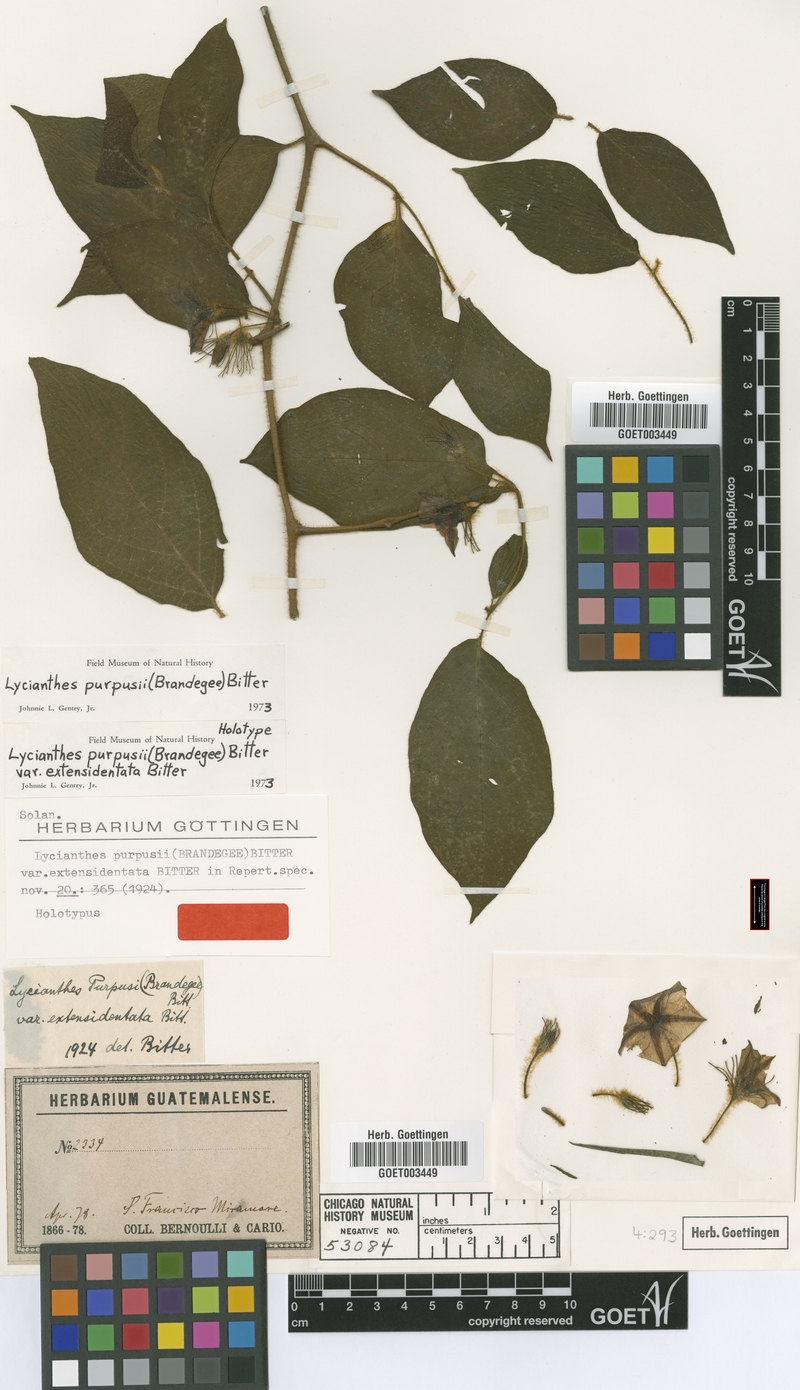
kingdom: Plantae
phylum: Tracheophyta
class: Magnoliopsida
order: Solanales
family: Solanaceae
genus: Lycianthes
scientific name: Lycianthes purpusii
